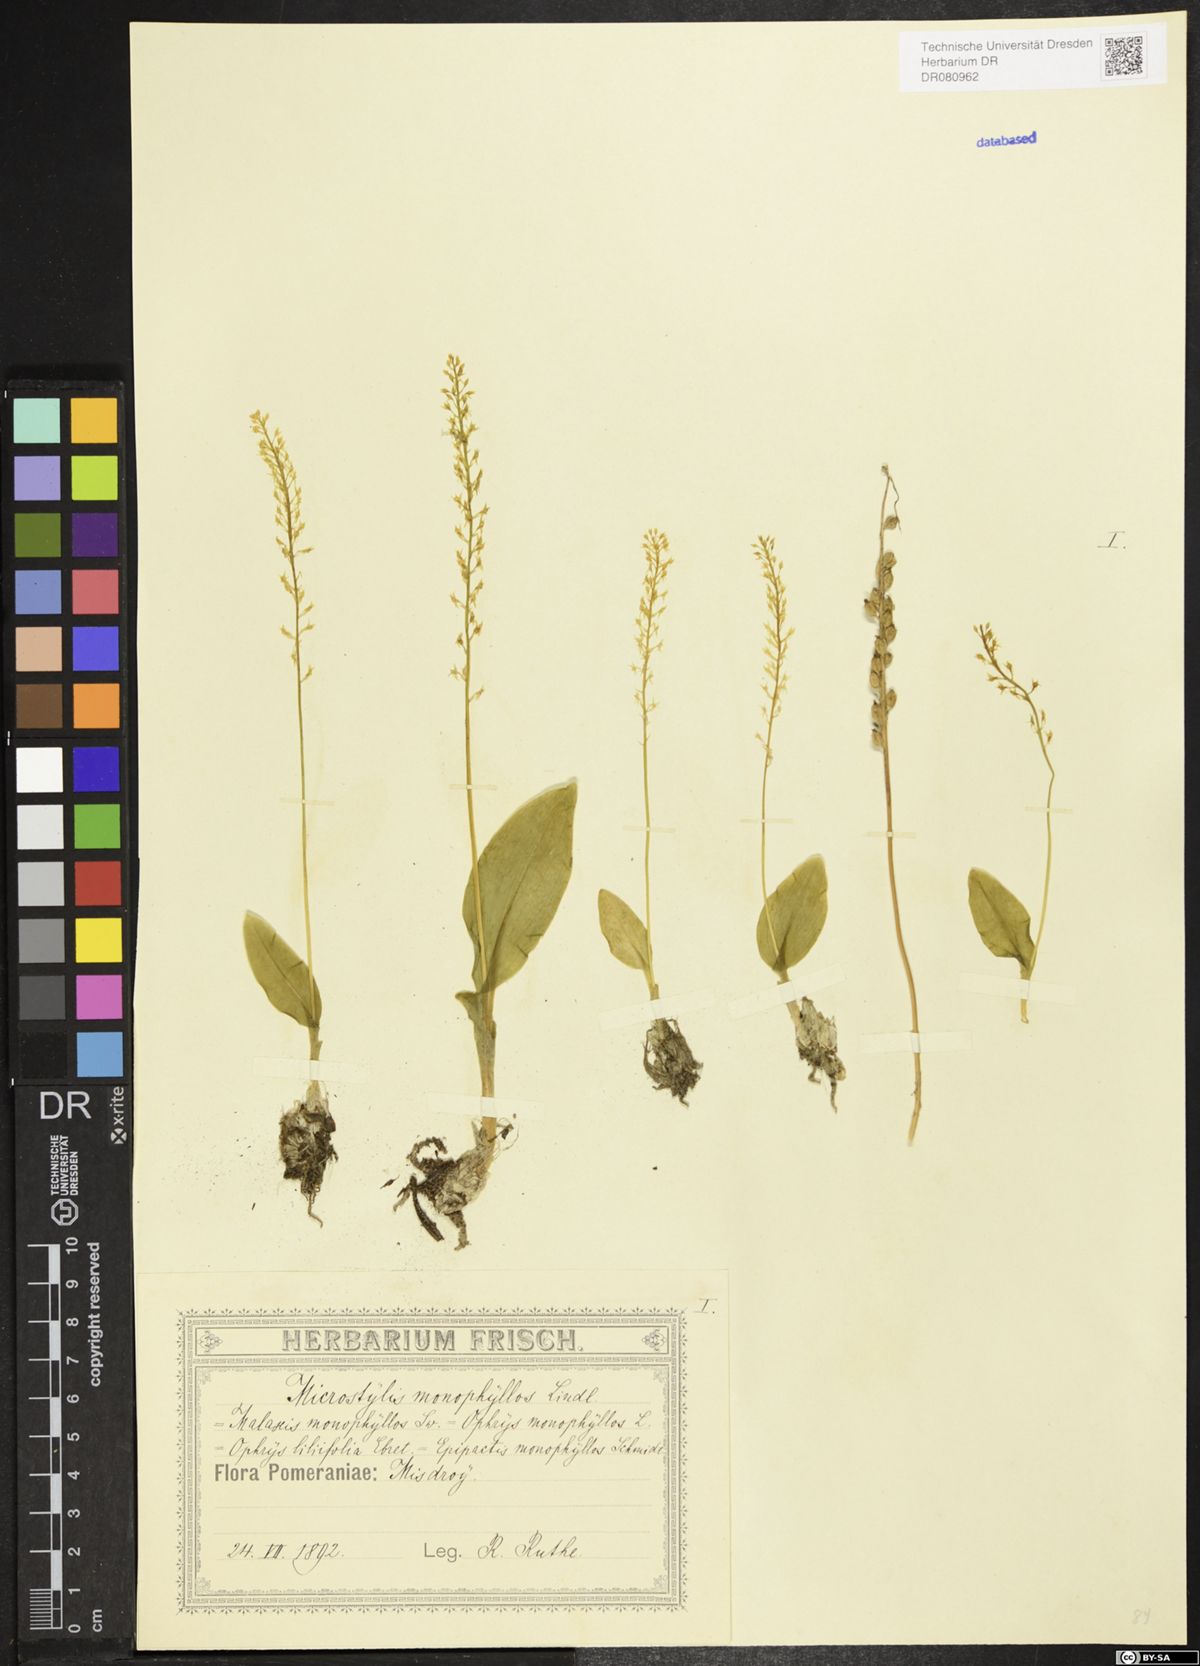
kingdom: Plantae
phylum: Tracheophyta
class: Liliopsida
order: Asparagales
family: Orchidaceae
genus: Malaxis
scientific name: Malaxis monophyllos
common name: White adder's-mouth
